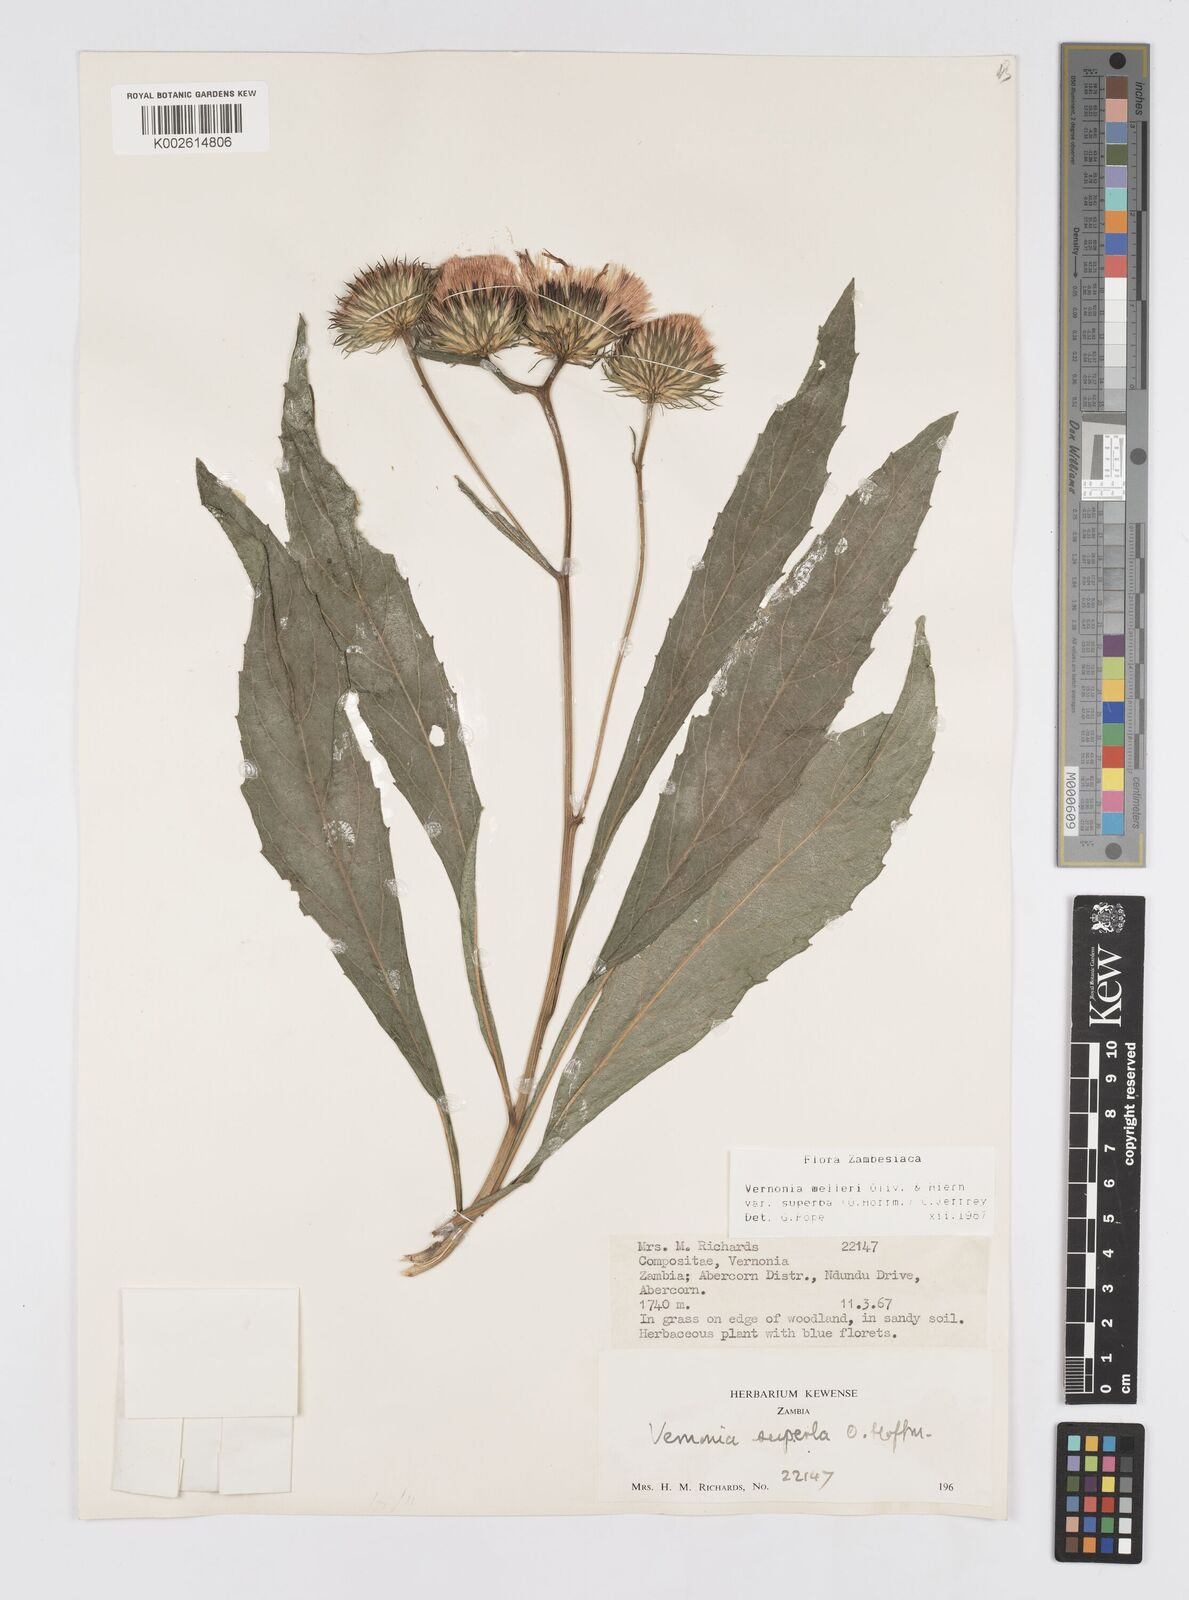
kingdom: Plantae
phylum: Tracheophyta
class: Magnoliopsida
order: Asterales
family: Asteraceae
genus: Linzia
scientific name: Linzia melleri
